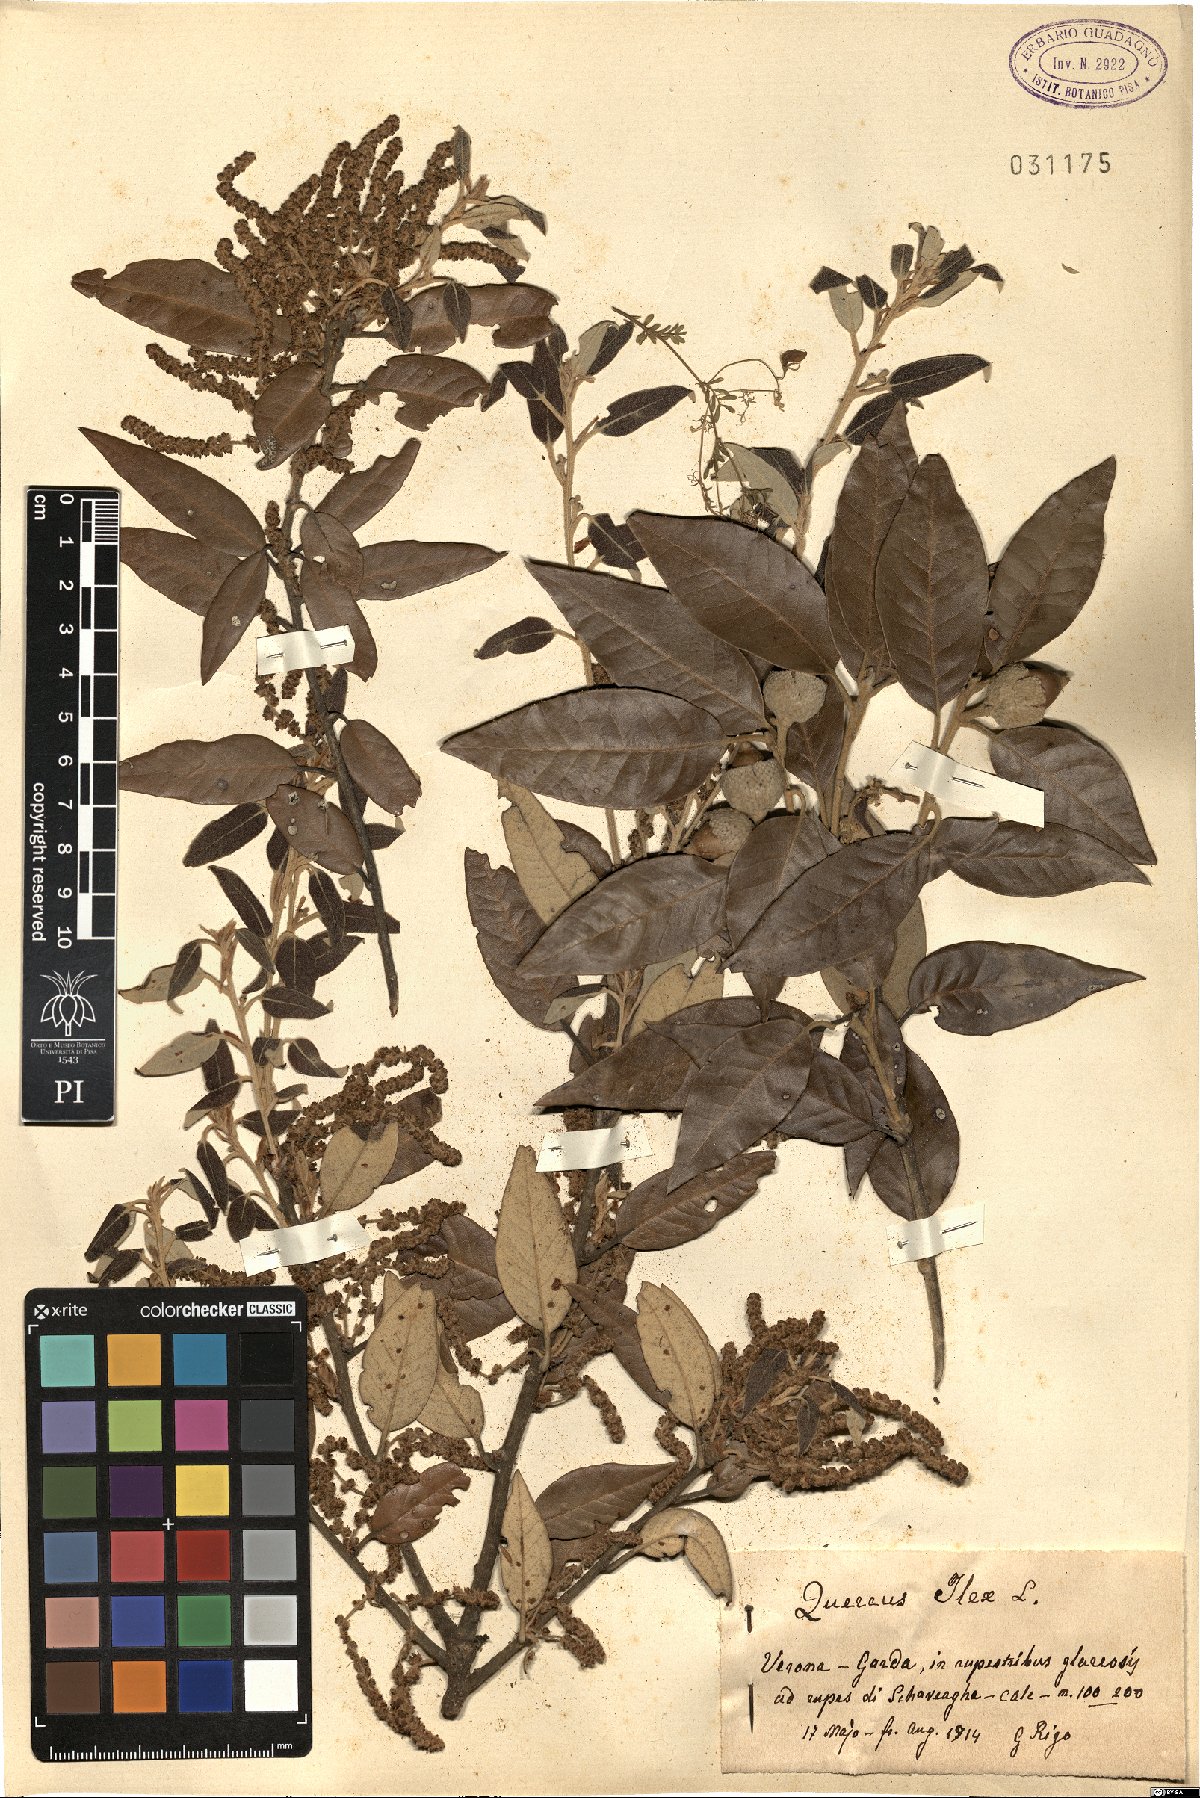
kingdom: Plantae
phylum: Tracheophyta
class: Magnoliopsida
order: Fagales
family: Fagaceae
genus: Quercus
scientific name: Quercus ilex
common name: Evergreen oak
